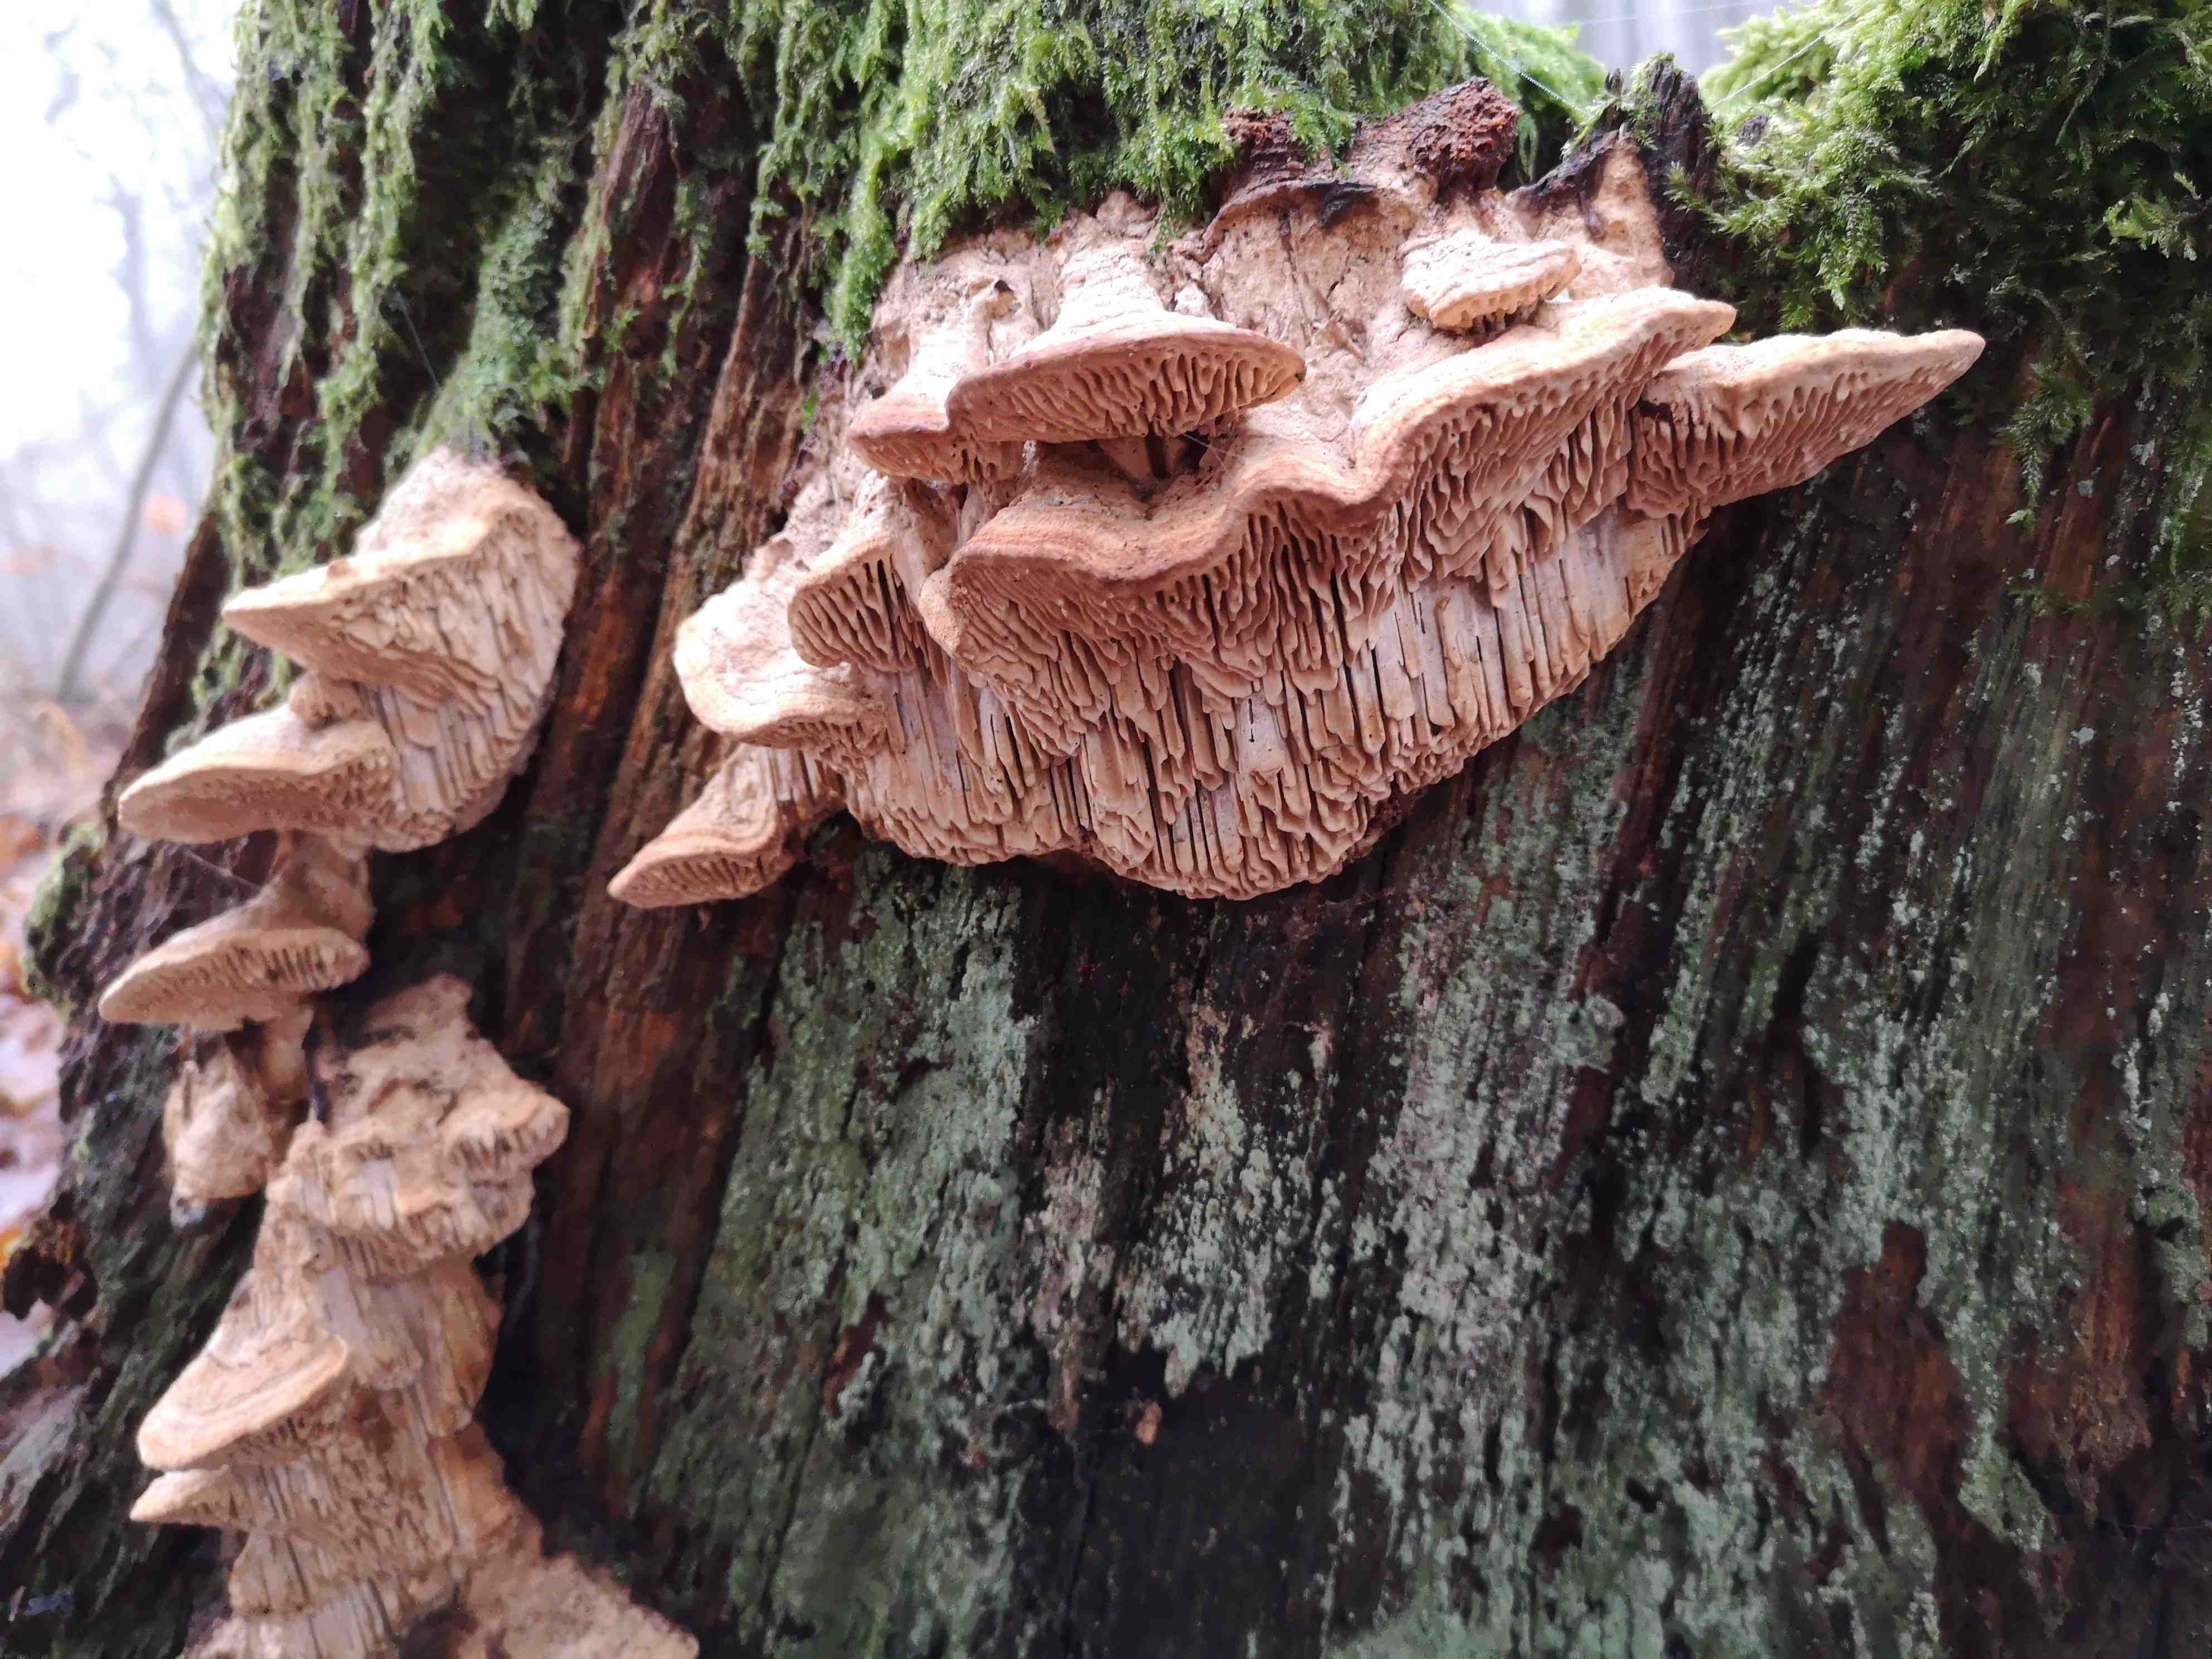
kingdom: Fungi
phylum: Basidiomycota
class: Agaricomycetes
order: Polyporales
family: Fomitopsidaceae
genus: Daedalea
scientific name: Daedalea quercina
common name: ege-labyrintsvamp
